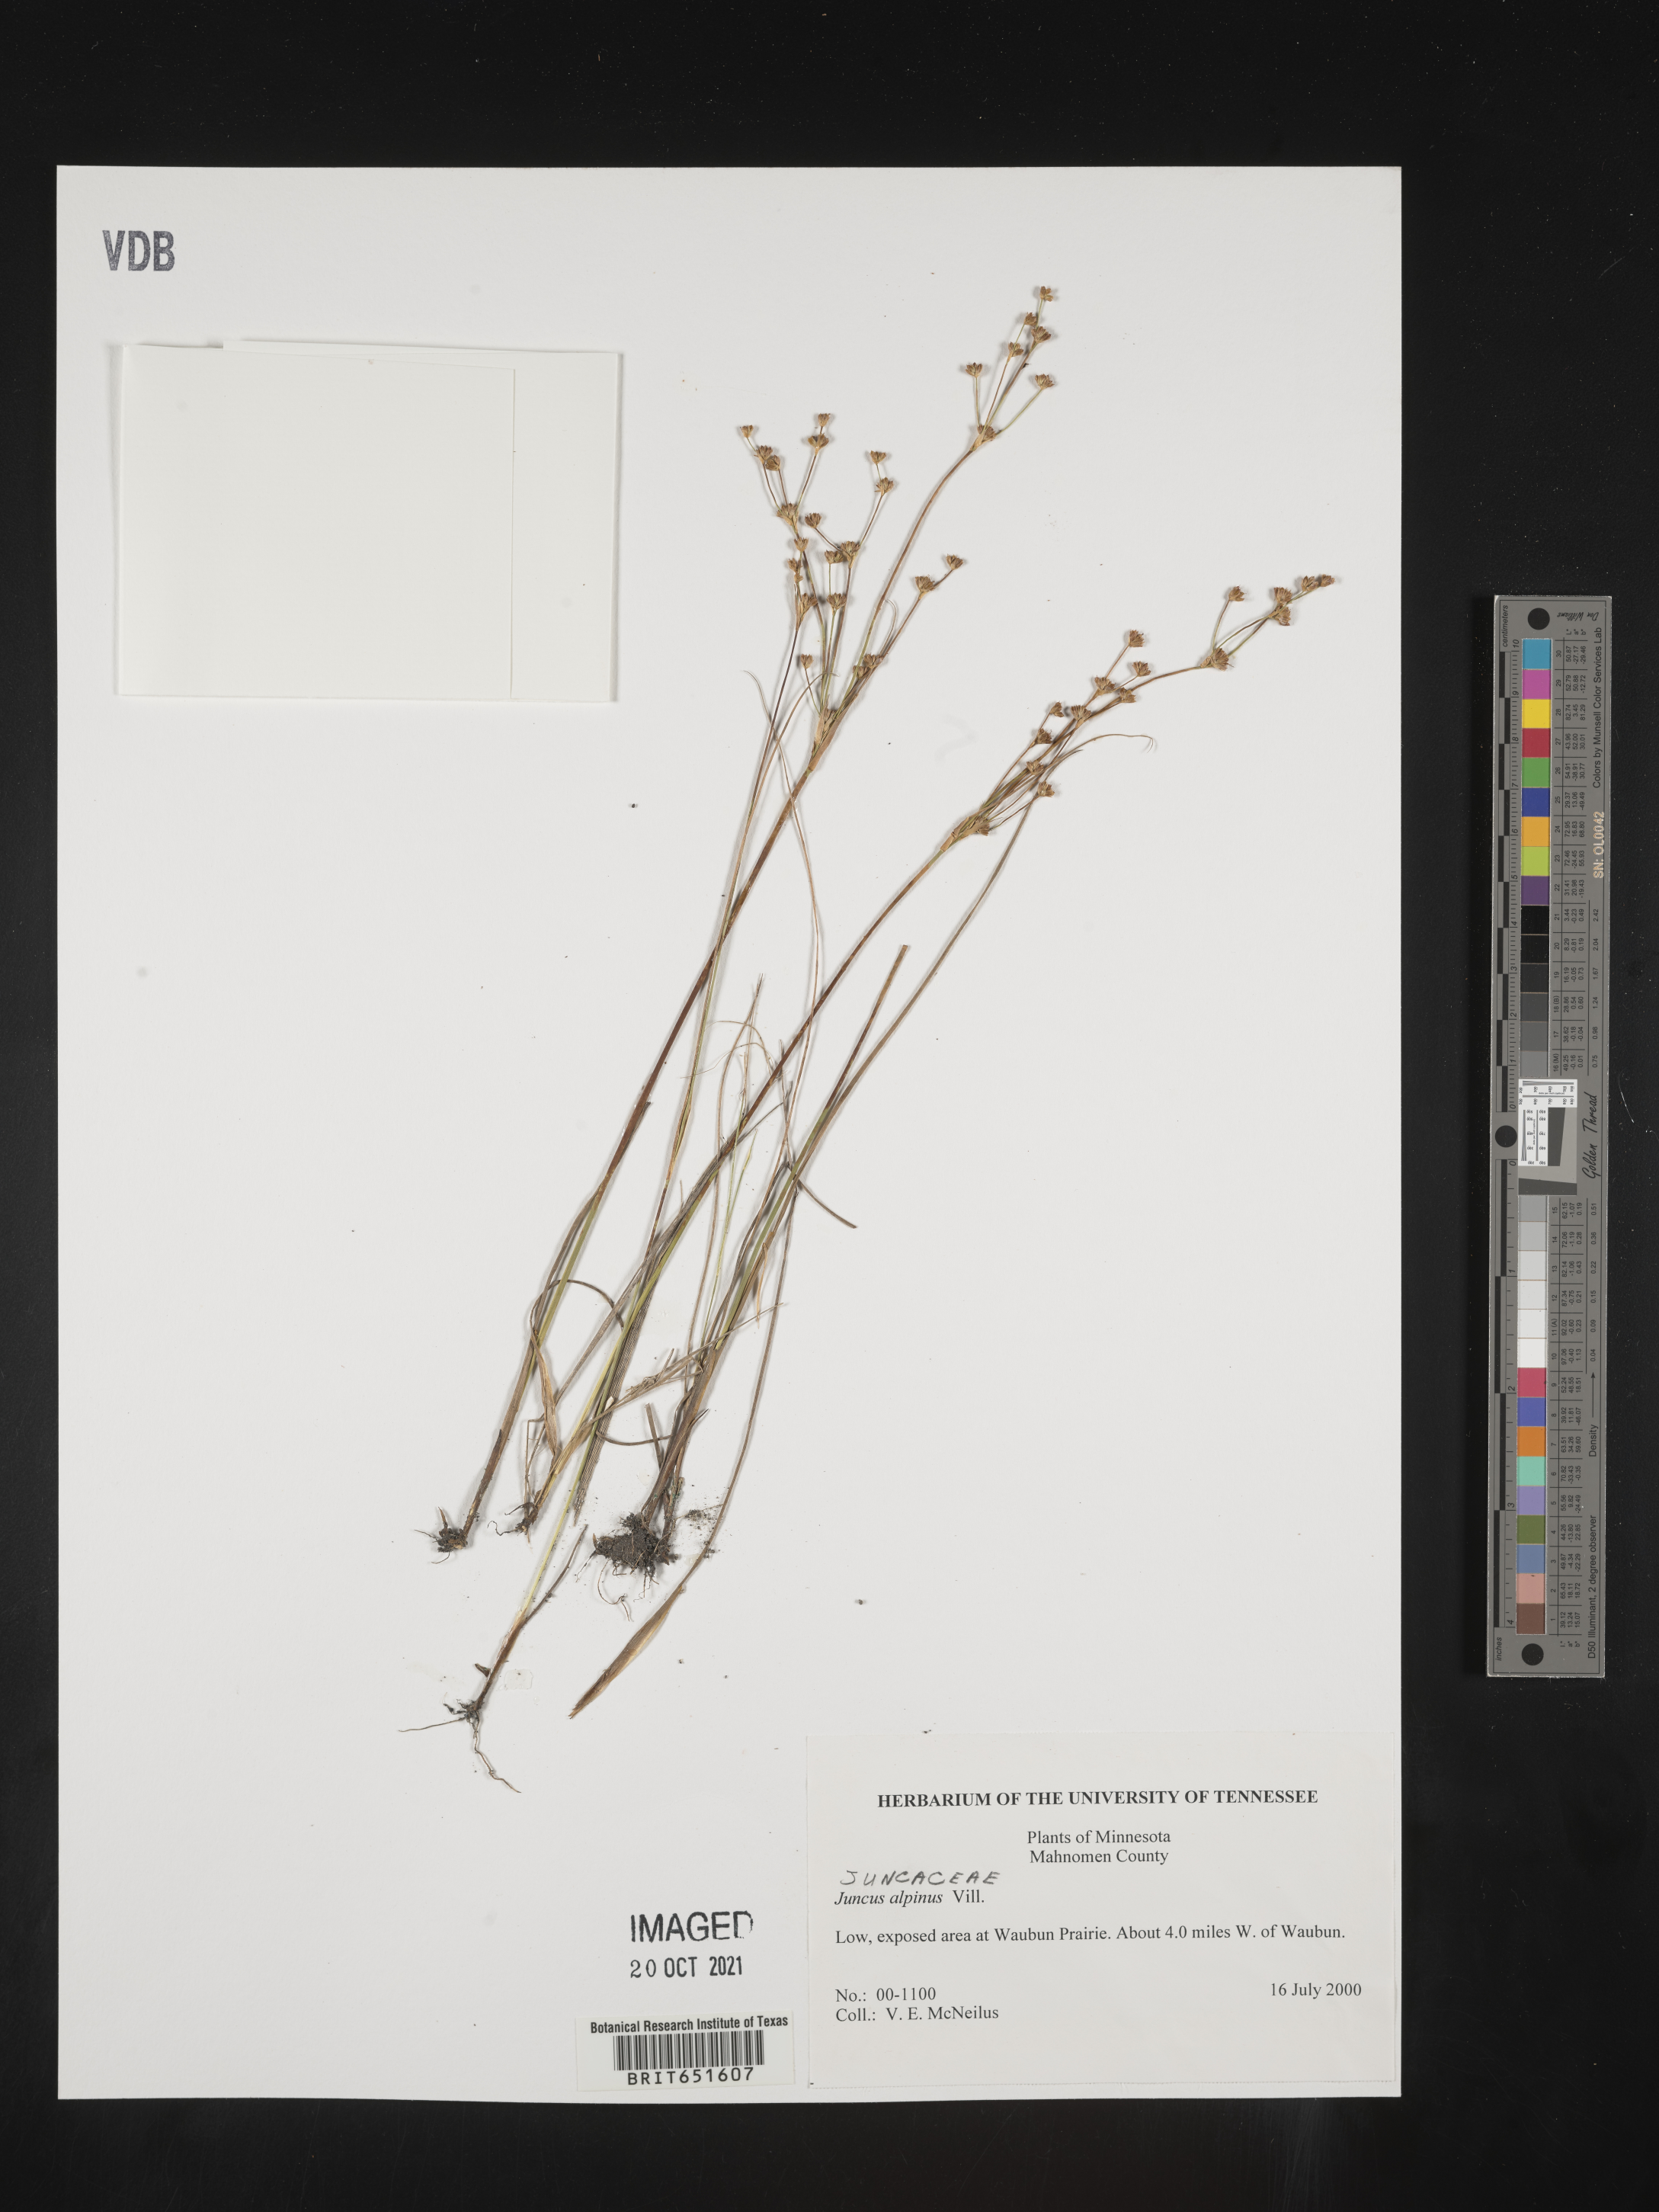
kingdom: Plantae
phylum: Tracheophyta
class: Liliopsida
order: Poales
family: Juncaceae
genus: Juncus
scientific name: Juncus alpinoarticulatus
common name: Alpine rush
